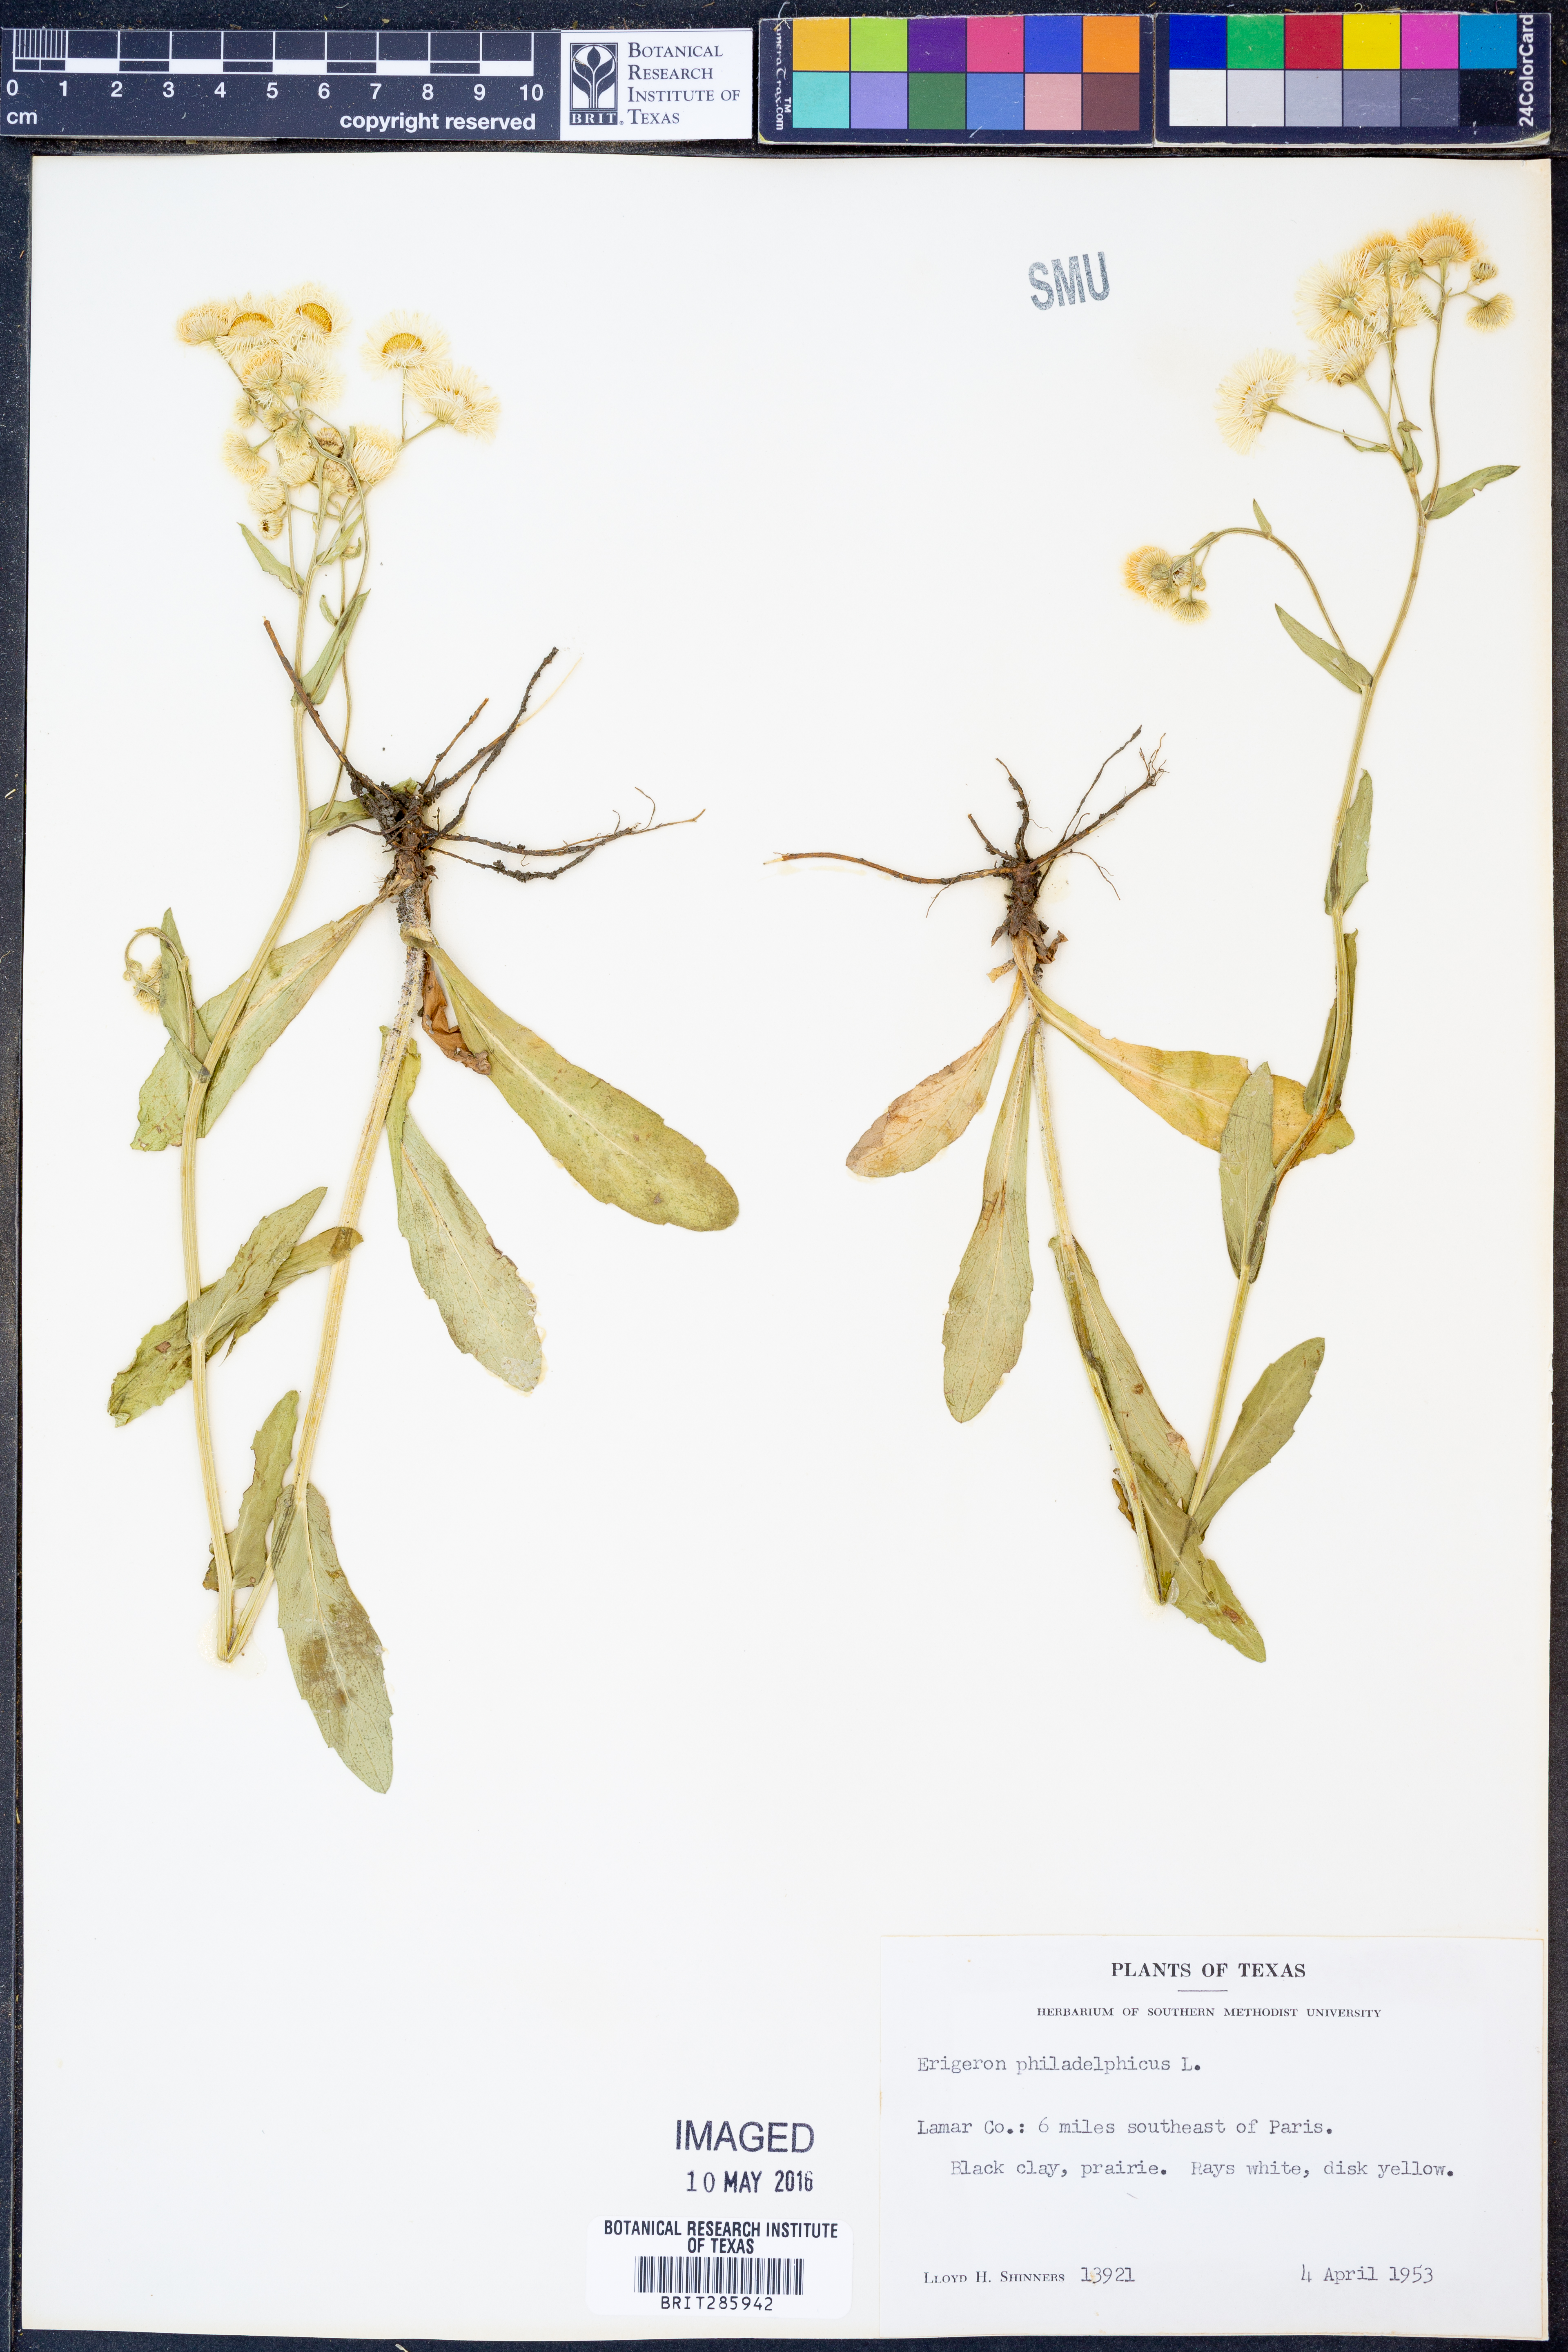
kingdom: Plantae
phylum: Tracheophyta
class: Magnoliopsida
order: Asterales
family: Asteraceae
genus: Erigeron
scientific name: Erigeron philadelphicus
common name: Robin's-plantain
